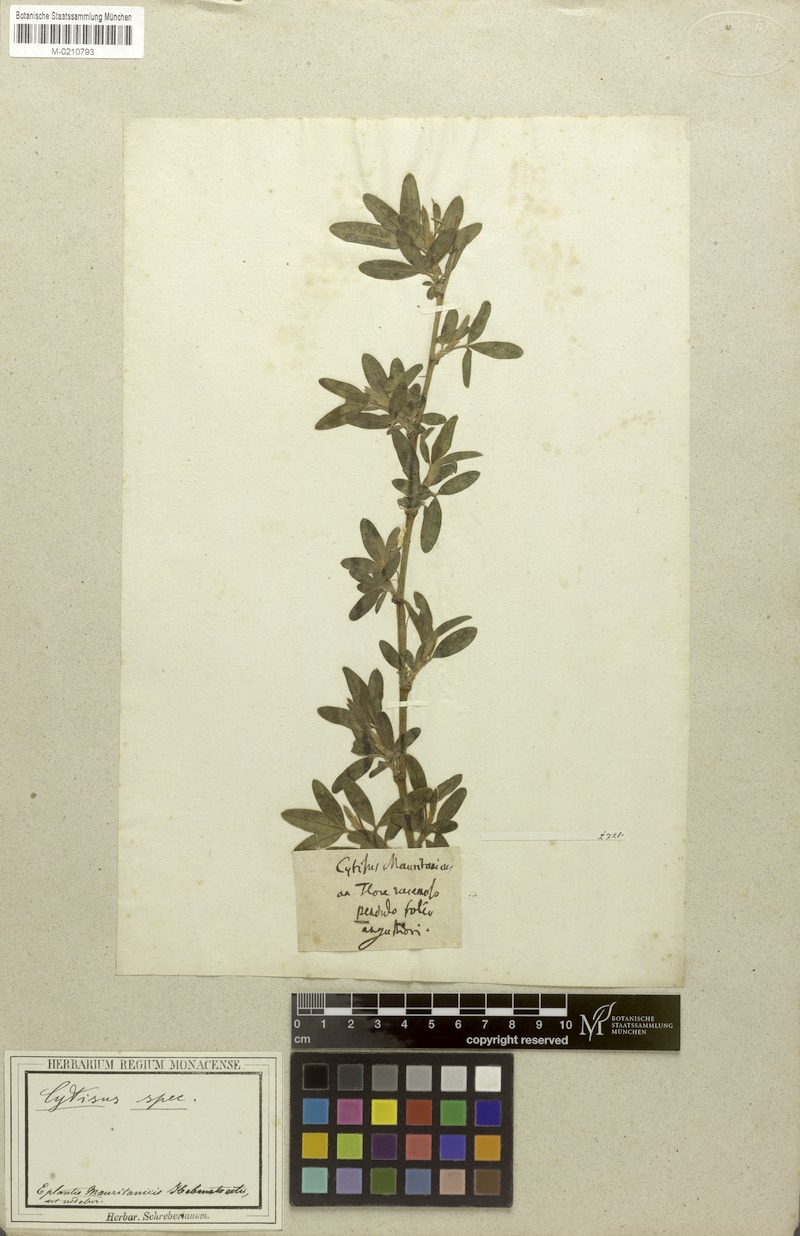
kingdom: Plantae
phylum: Tracheophyta
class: Magnoliopsida
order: Fabales
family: Fabaceae
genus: Cytisus
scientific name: Cytisus
